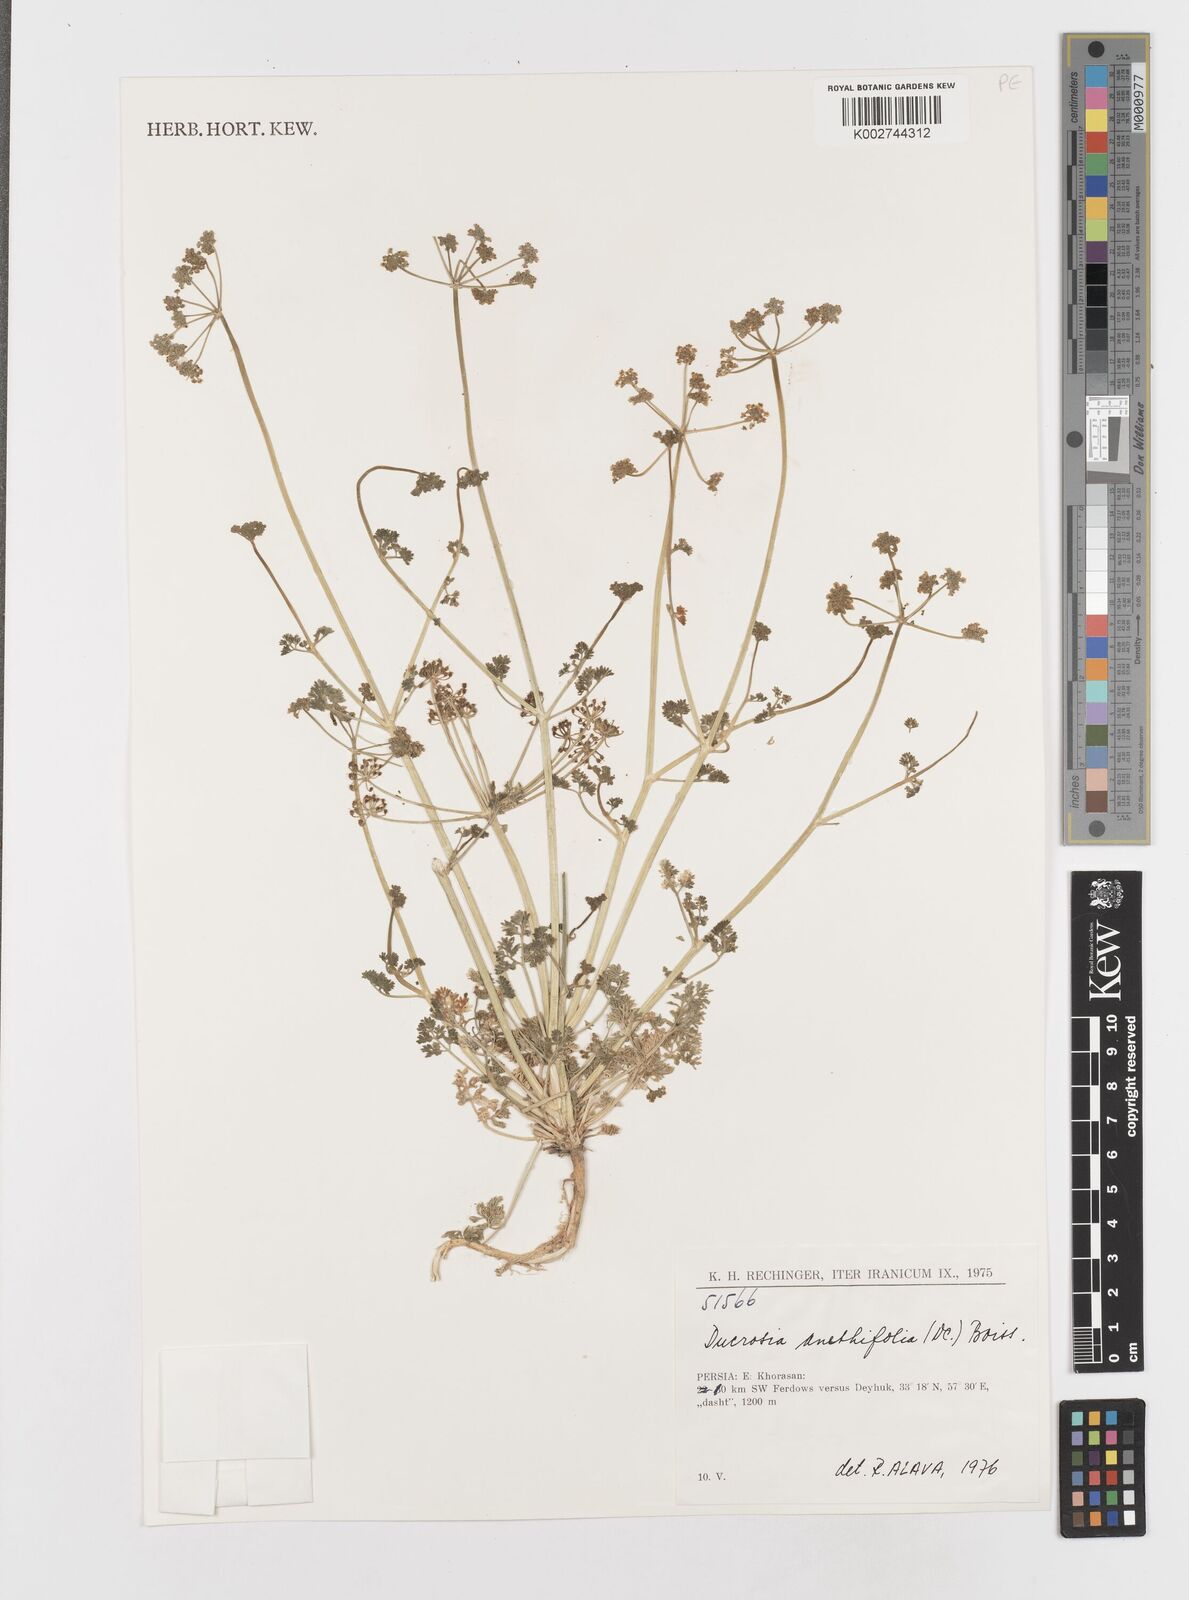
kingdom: Plantae
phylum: Tracheophyta
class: Magnoliopsida
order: Apiales
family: Apiaceae
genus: Ducrosia
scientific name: Ducrosia anethifolia
